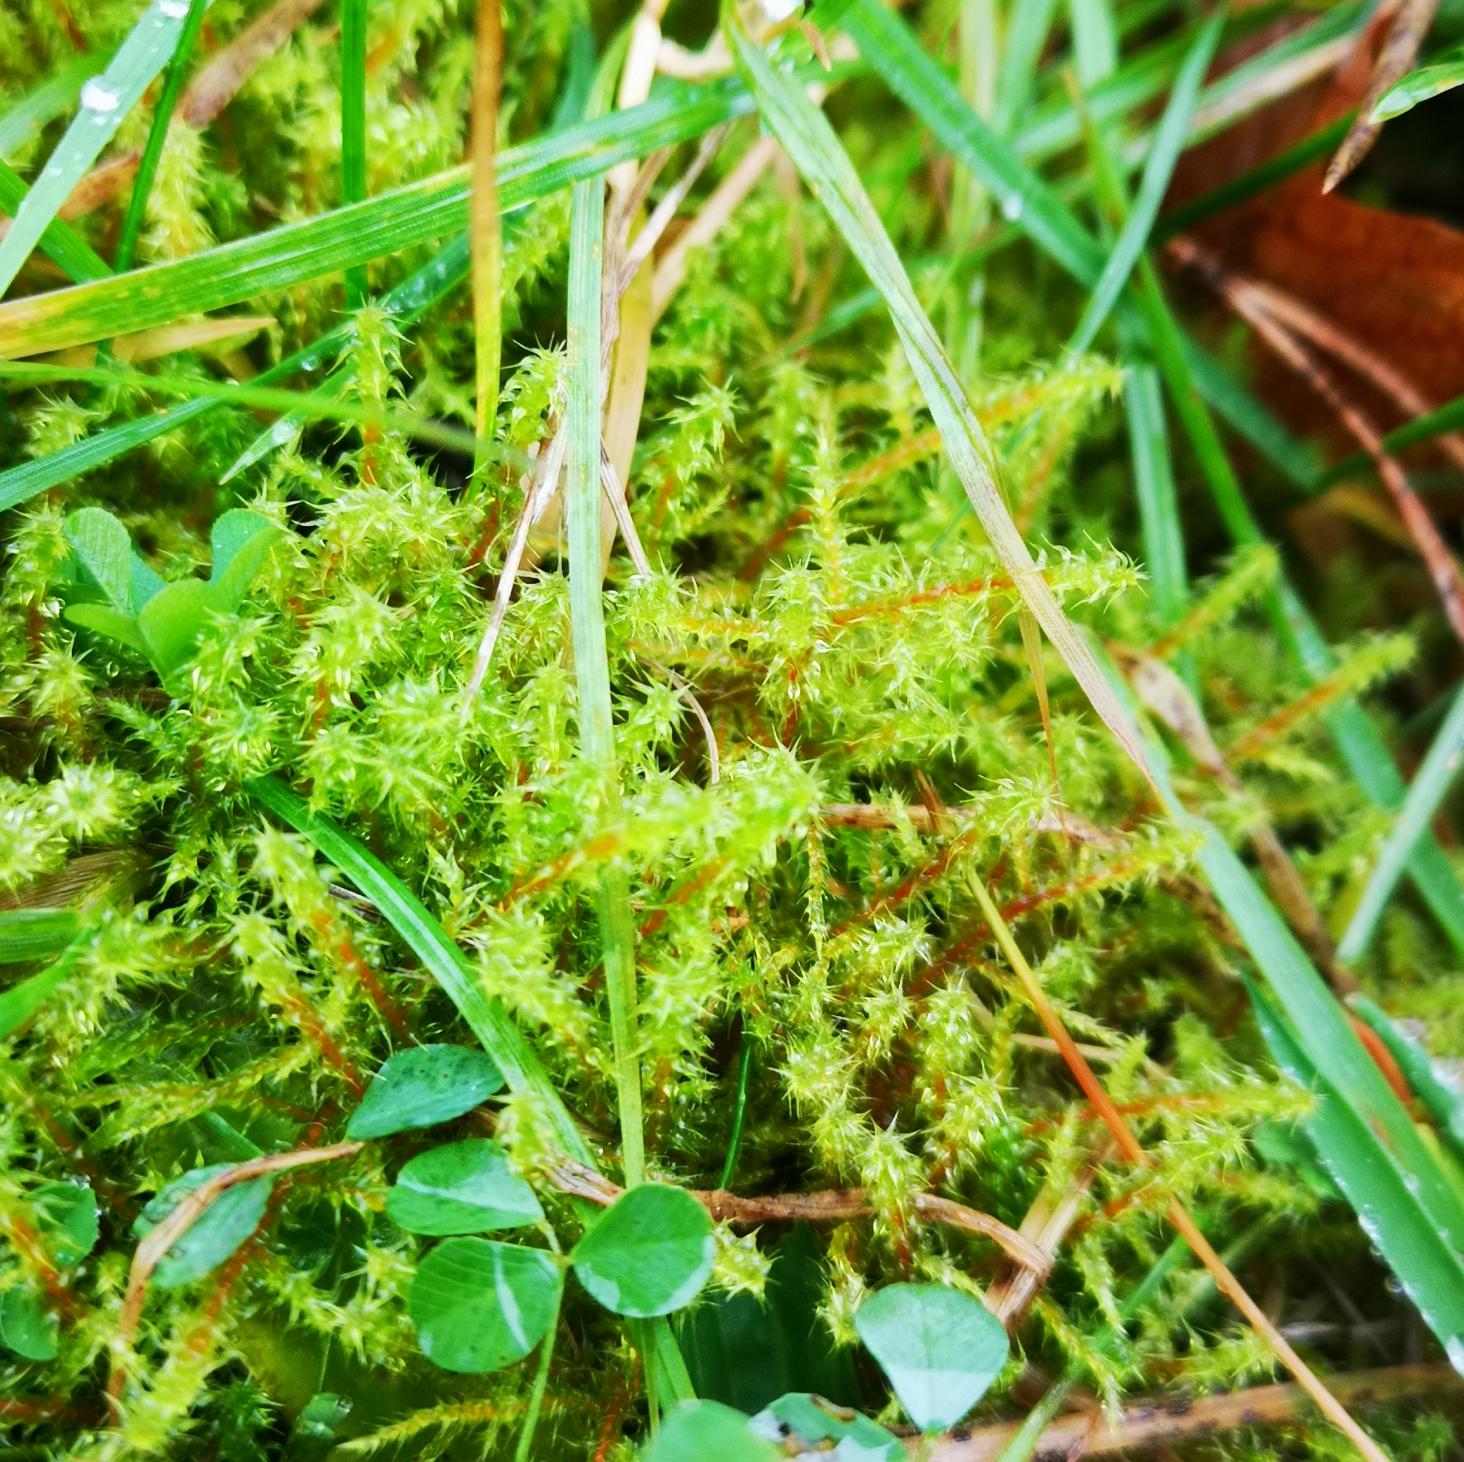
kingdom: Plantae
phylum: Bryophyta
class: Bryopsida
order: Hypnales
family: Hylocomiaceae
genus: Rhytidiadelphus
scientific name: Rhytidiadelphus squarrosus
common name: Plæne-kransemos
